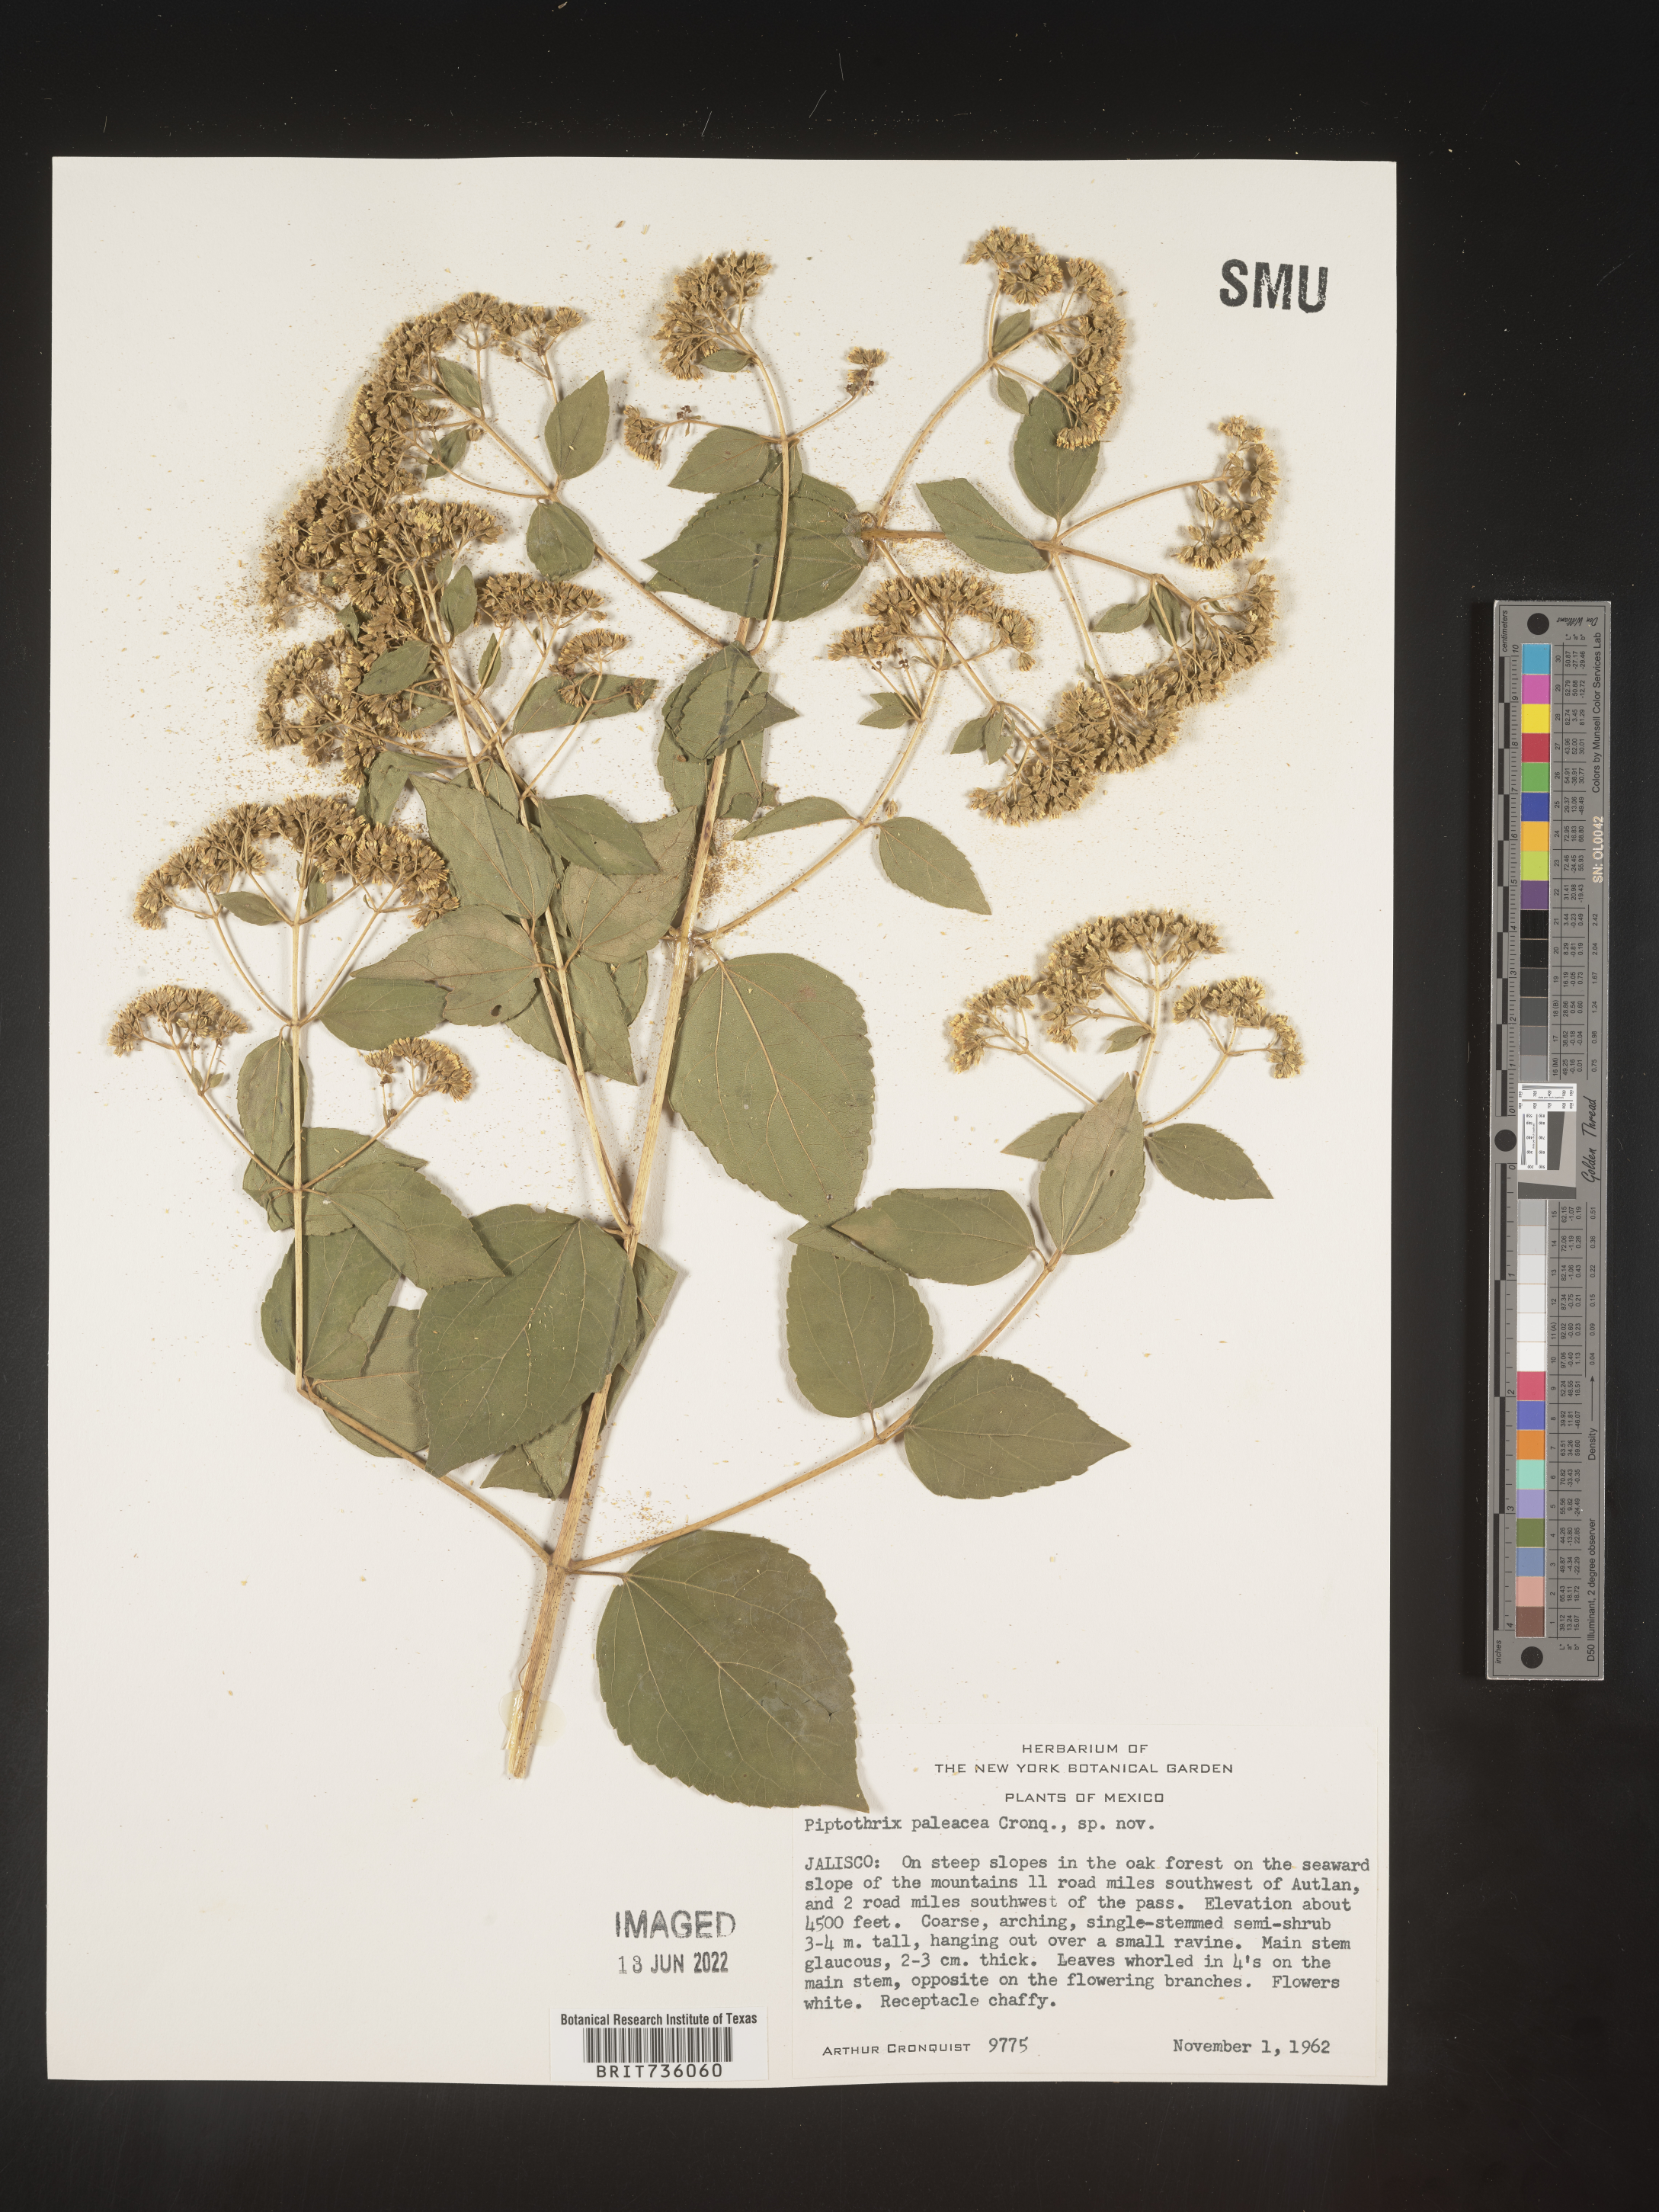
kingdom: Plantae
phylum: Tracheophyta
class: Magnoliopsida
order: Asterales
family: Asteraceae
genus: Ageratina
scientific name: Ageratina
